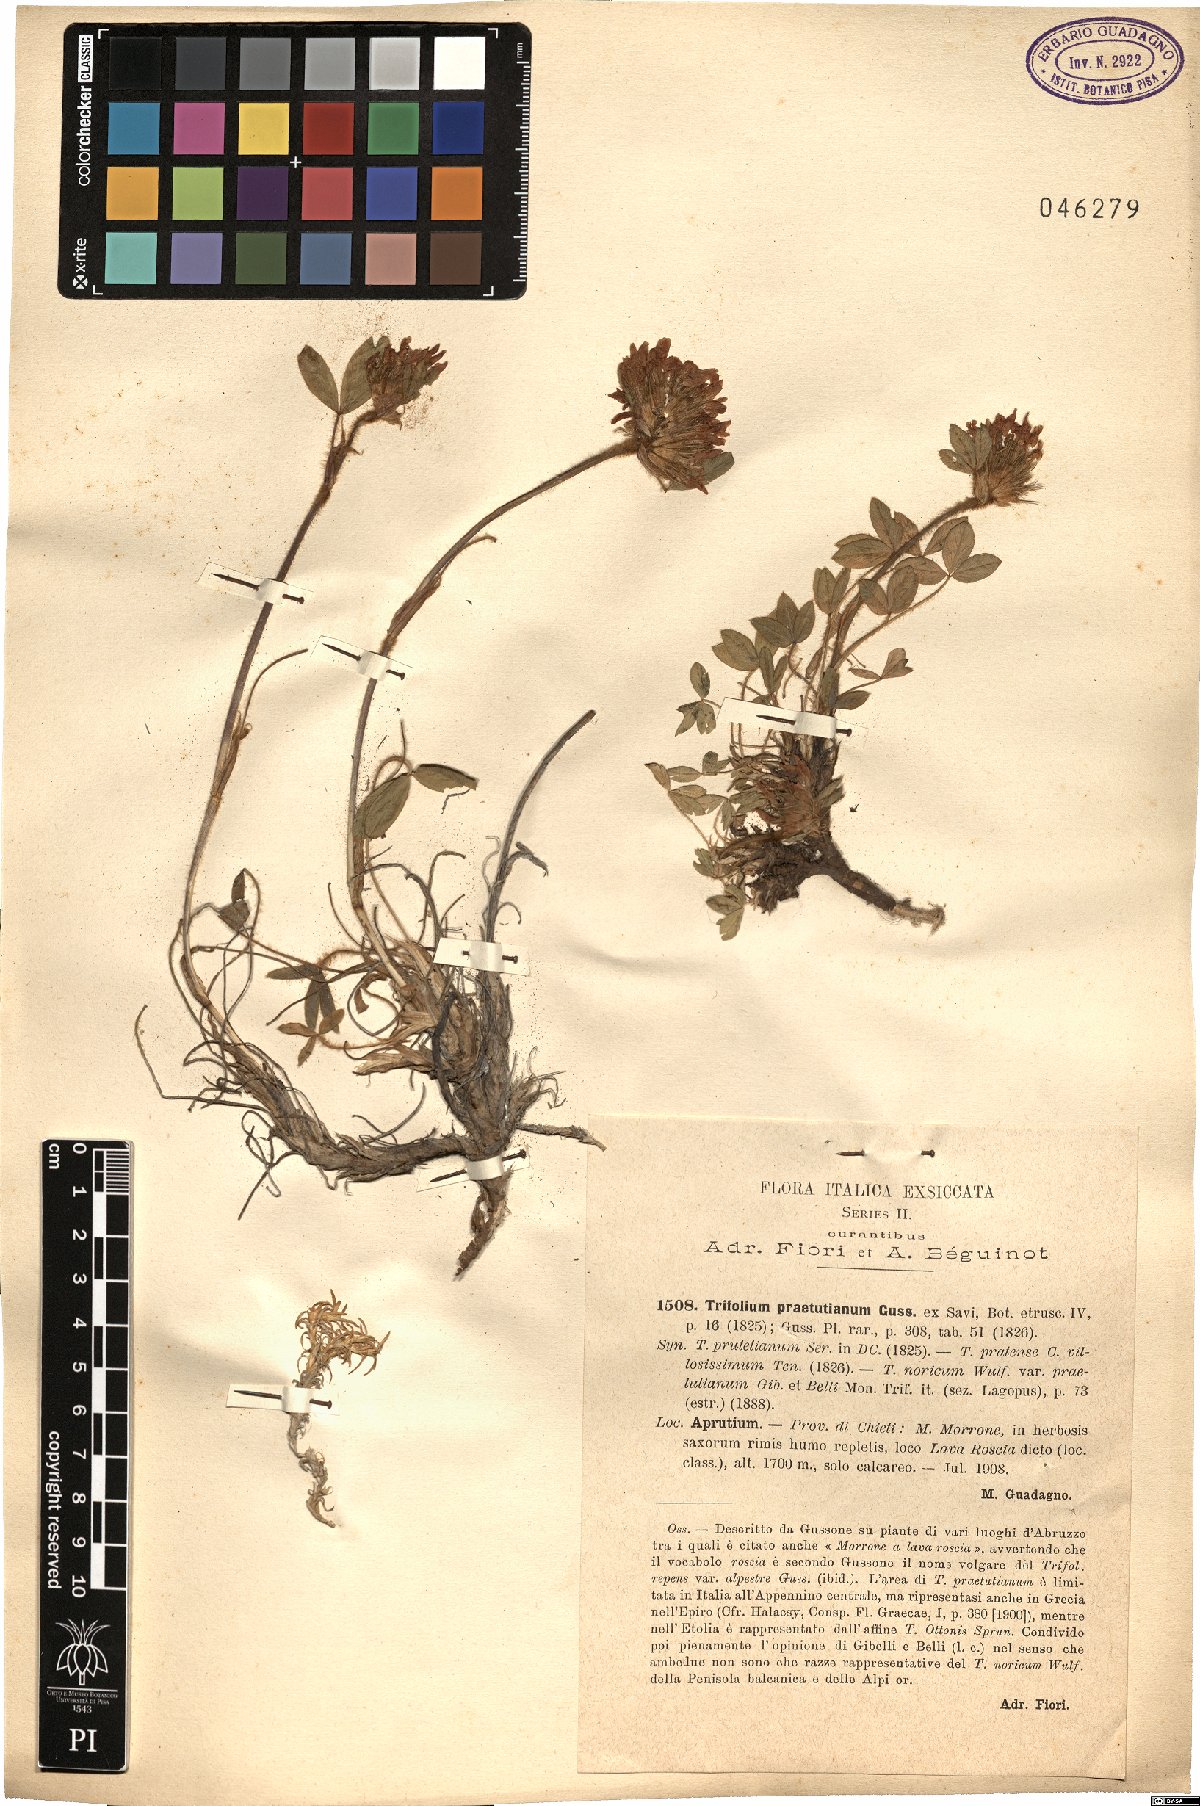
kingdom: Plantae
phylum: Tracheophyta
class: Magnoliopsida
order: Fabales
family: Fabaceae
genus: Trifolium
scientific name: Trifolium noricum
